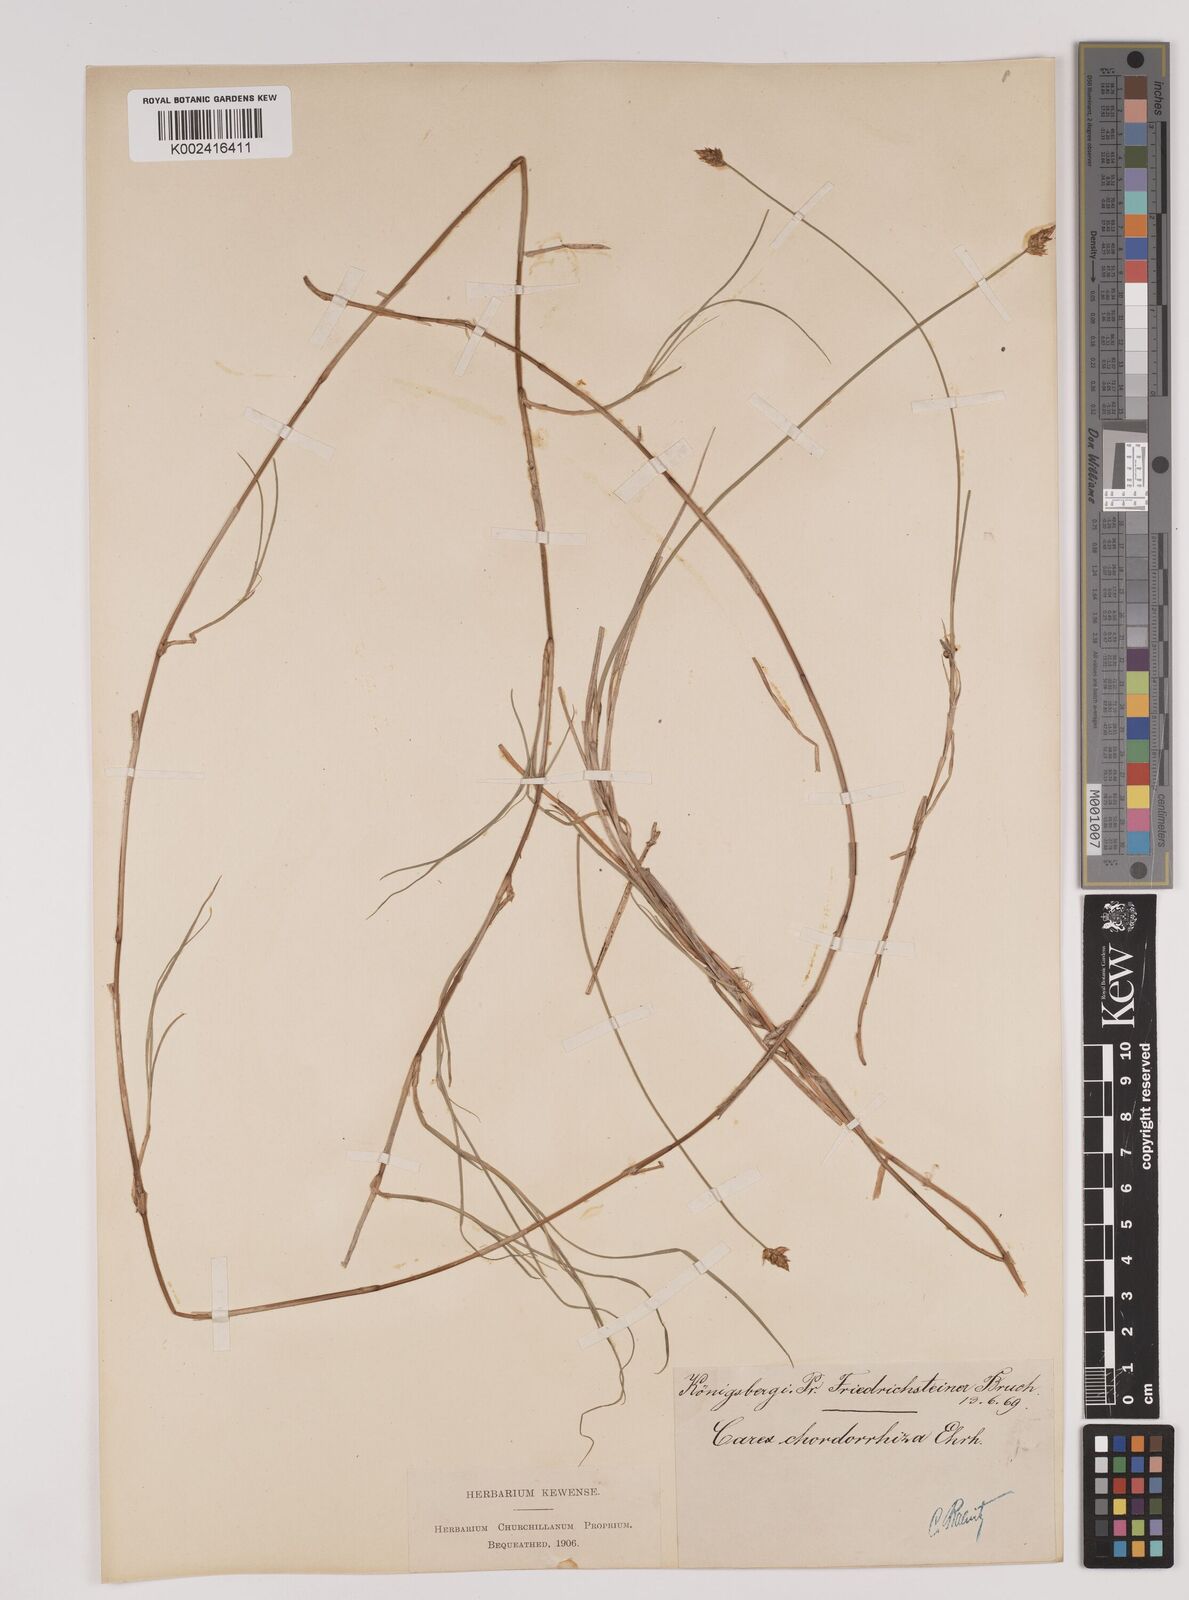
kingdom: Plantae
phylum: Tracheophyta
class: Liliopsida
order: Poales
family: Cyperaceae
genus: Carex
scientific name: Carex chordorrhiza
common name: String sedge
